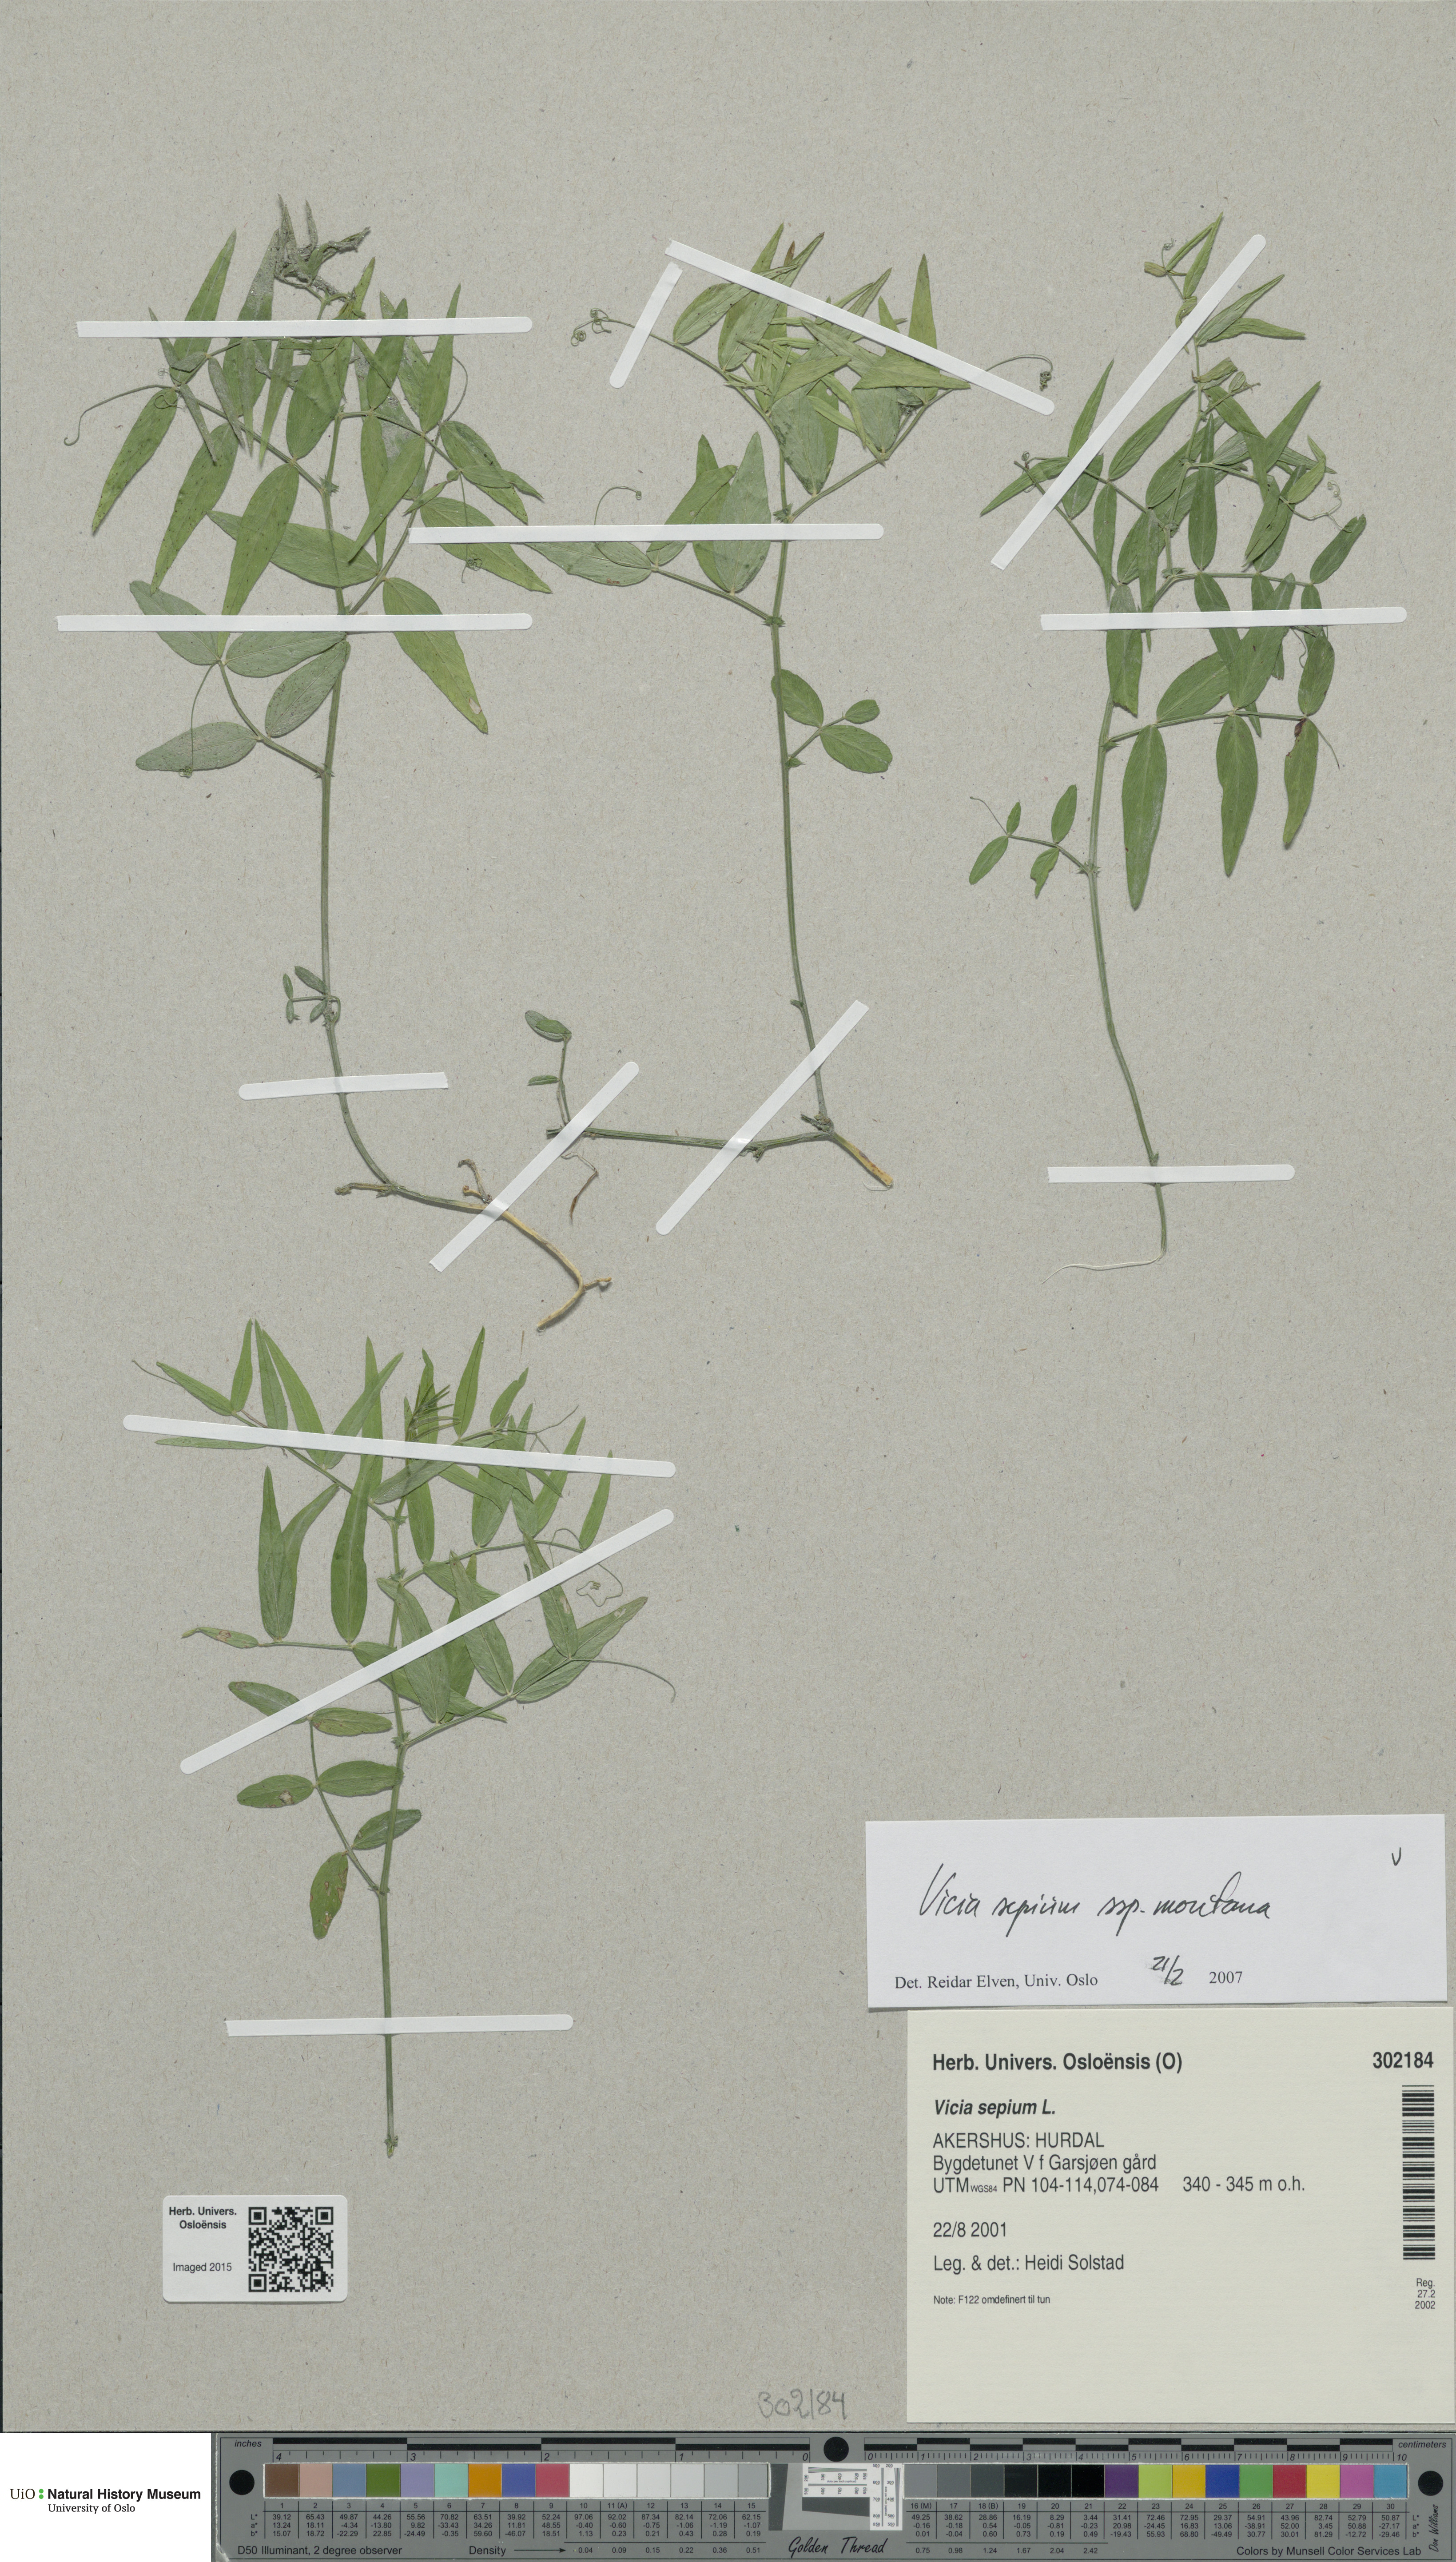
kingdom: Plantae
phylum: Tracheophyta
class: Magnoliopsida
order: Fabales
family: Fabaceae
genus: Vicia
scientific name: Vicia sepium
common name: Bush vetch
